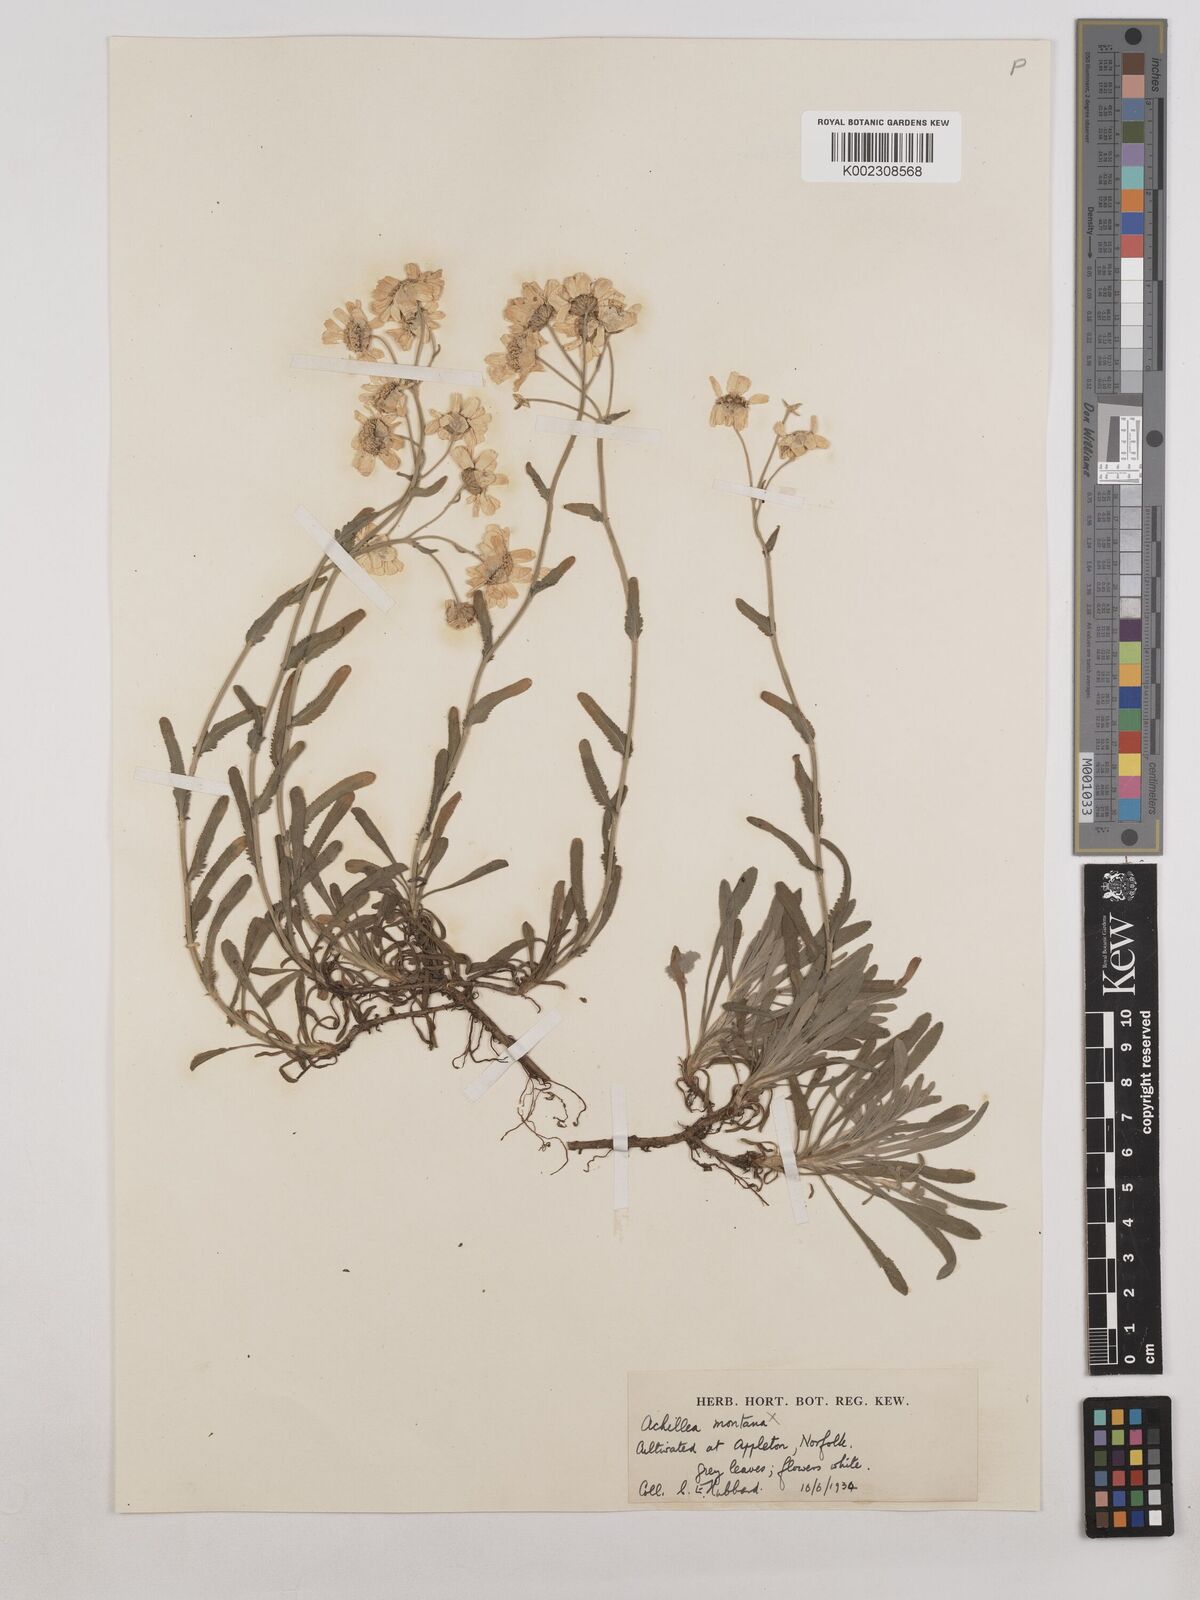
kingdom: Plantae
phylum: Tracheophyta
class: Magnoliopsida
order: Asterales
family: Asteraceae
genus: Achillea
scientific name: Achillea ageratifolia
